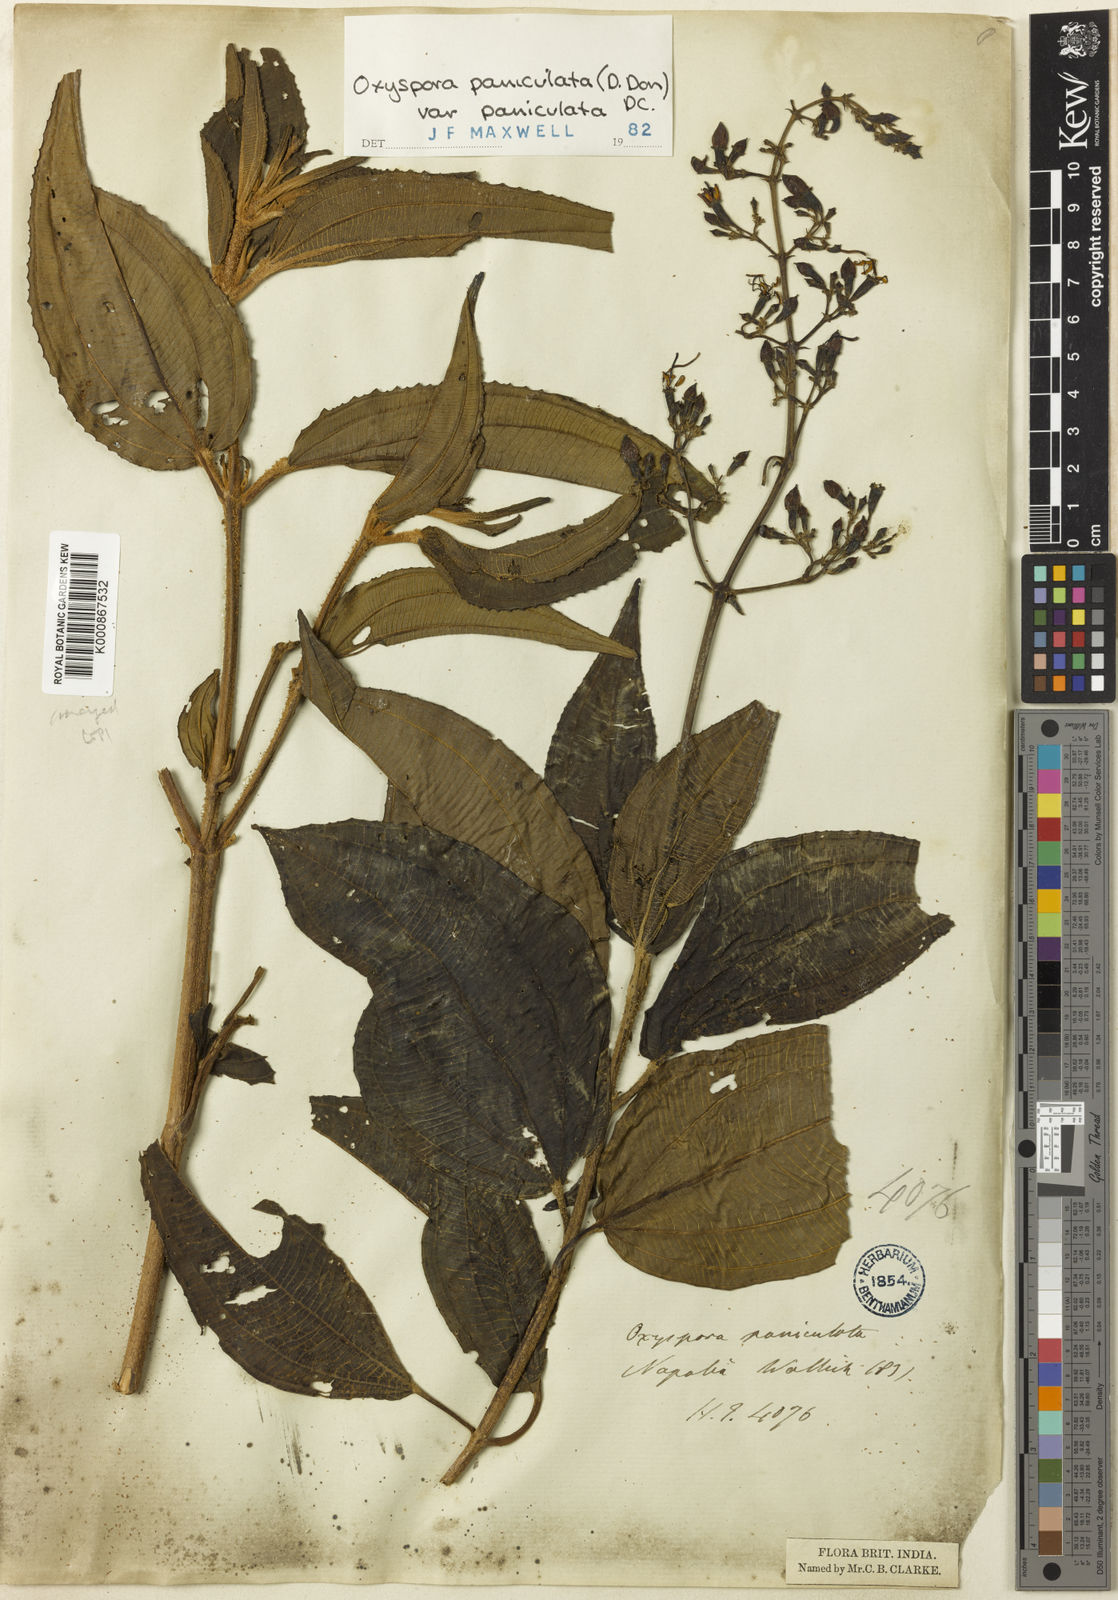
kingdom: Plantae
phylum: Tracheophyta
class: Magnoliopsida
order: Myrtales
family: Melastomataceae
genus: Oxyspora
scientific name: Oxyspora paniculata
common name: Bristletips
